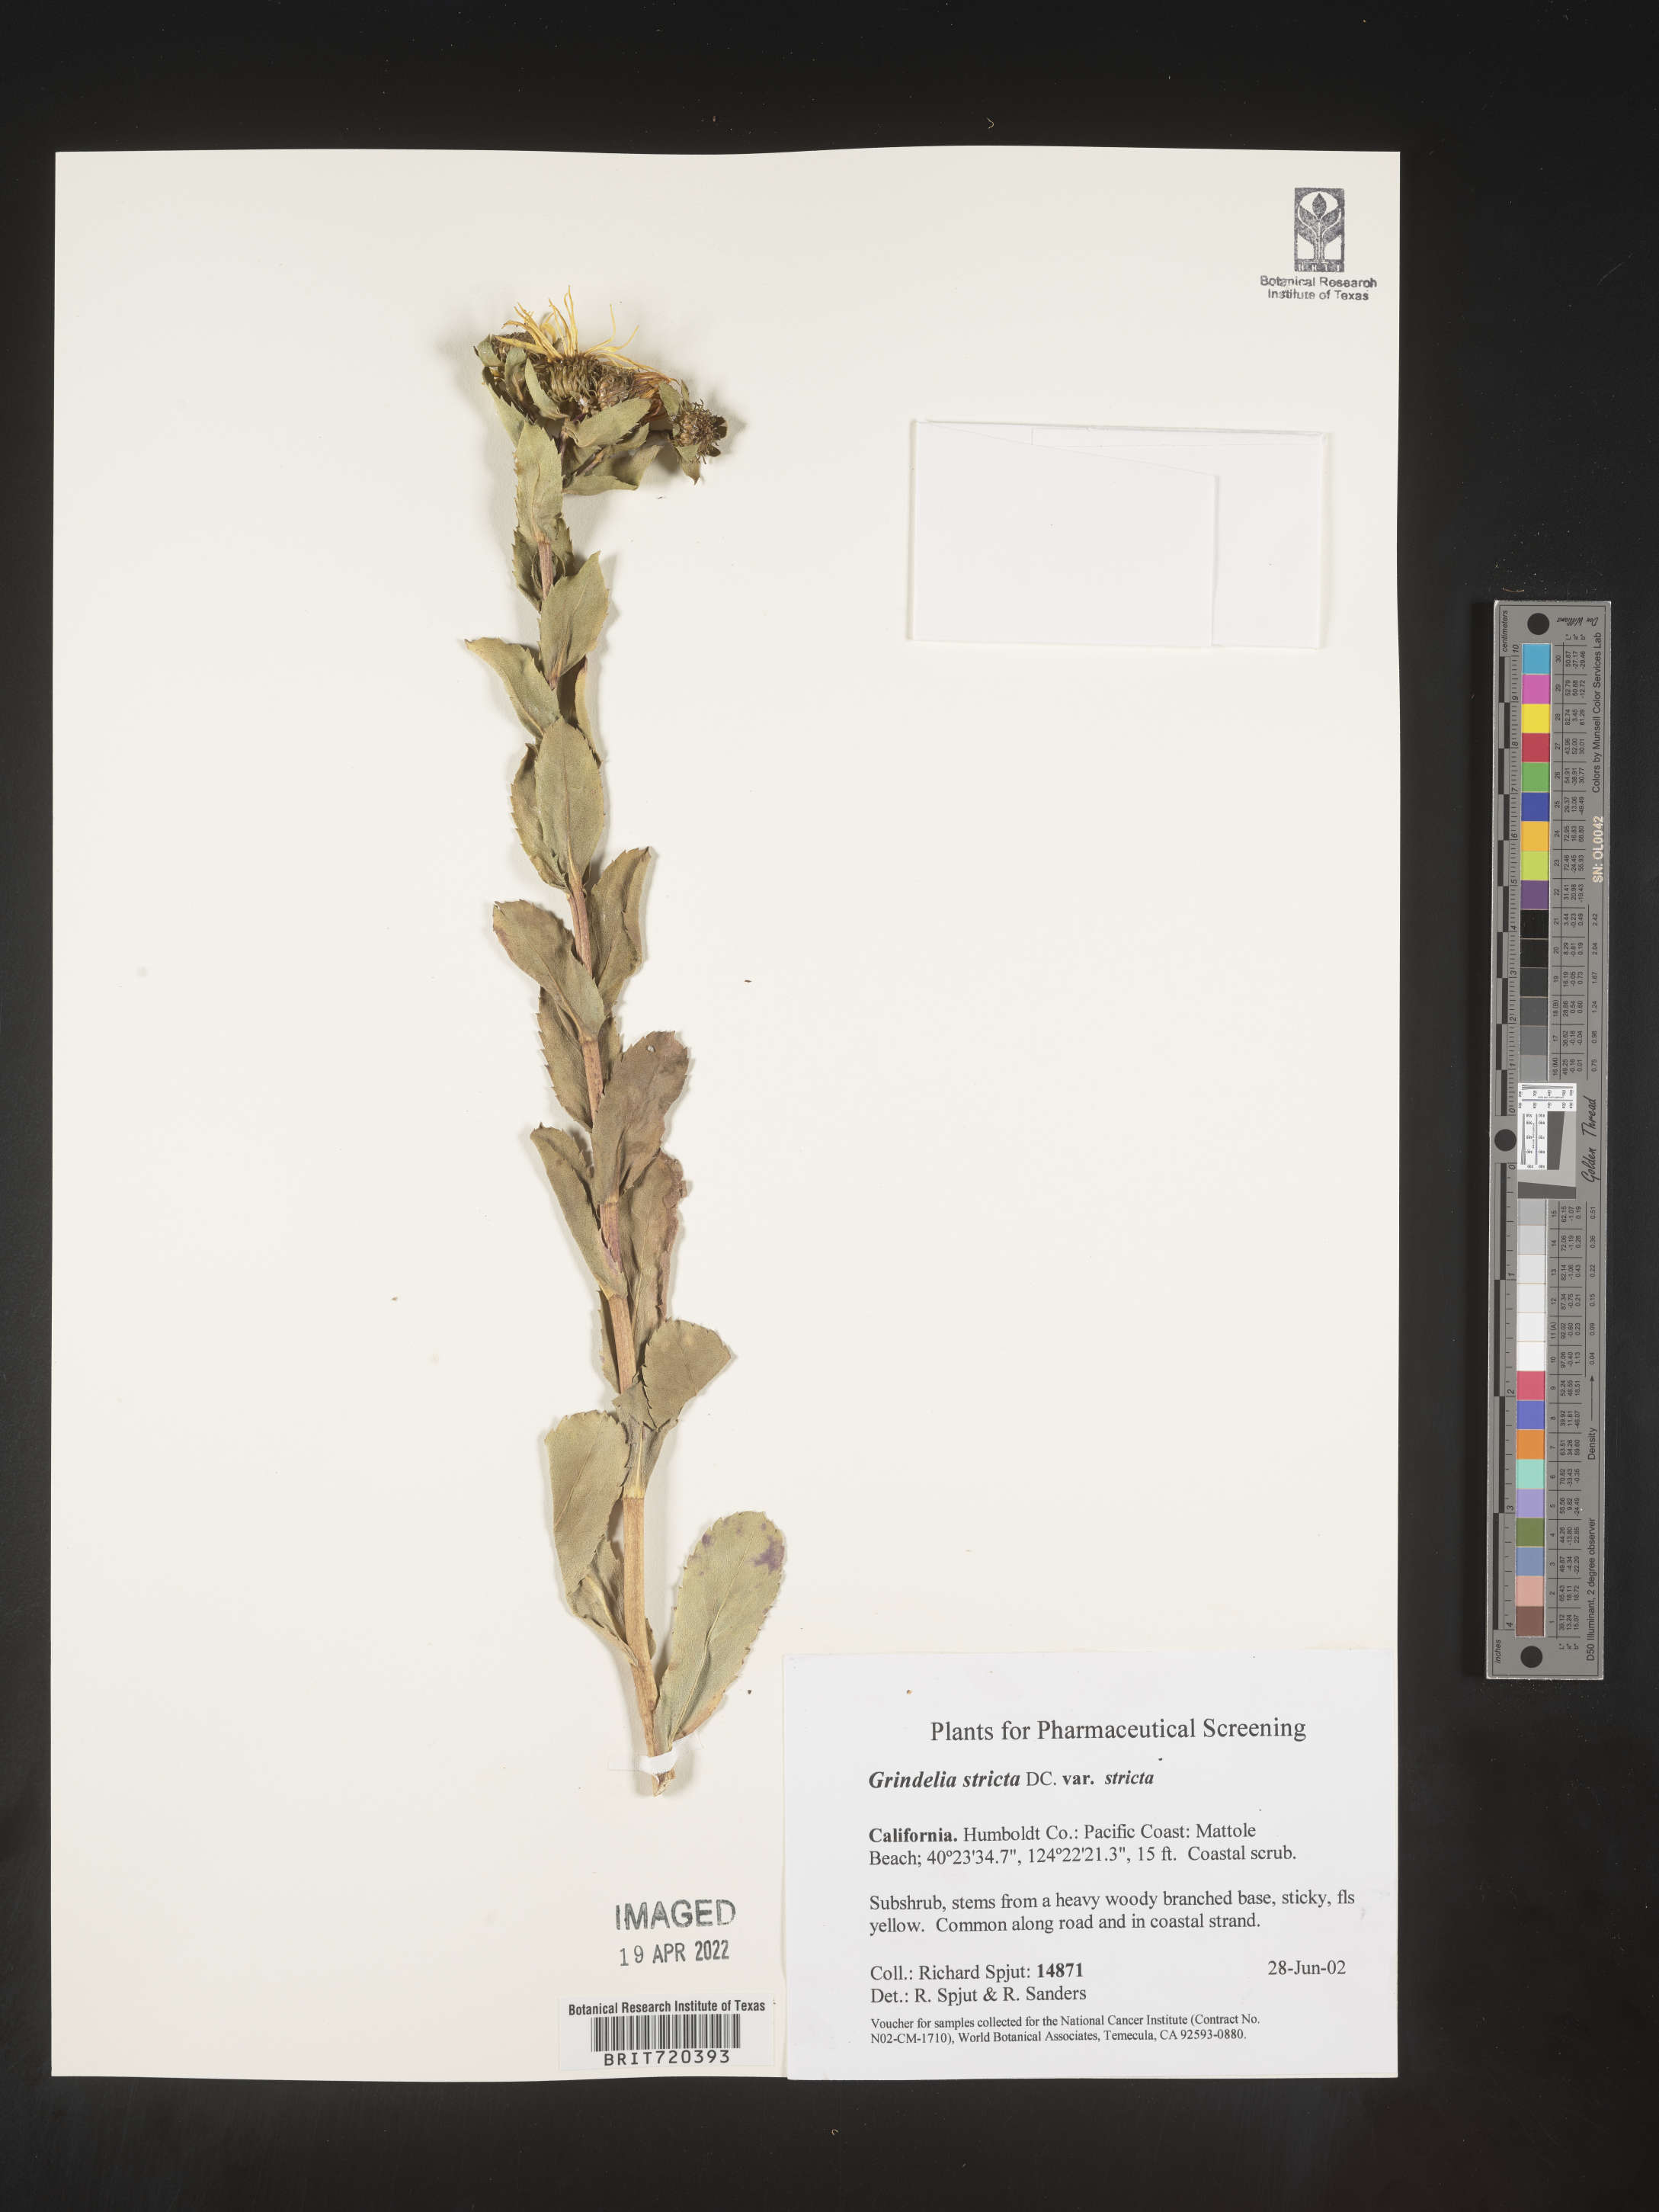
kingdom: Plantae
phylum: Tracheophyta
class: Magnoliopsida
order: Asterales
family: Asteraceae
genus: Grindelia
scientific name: Grindelia hirsutula
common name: Hairy gumweed
